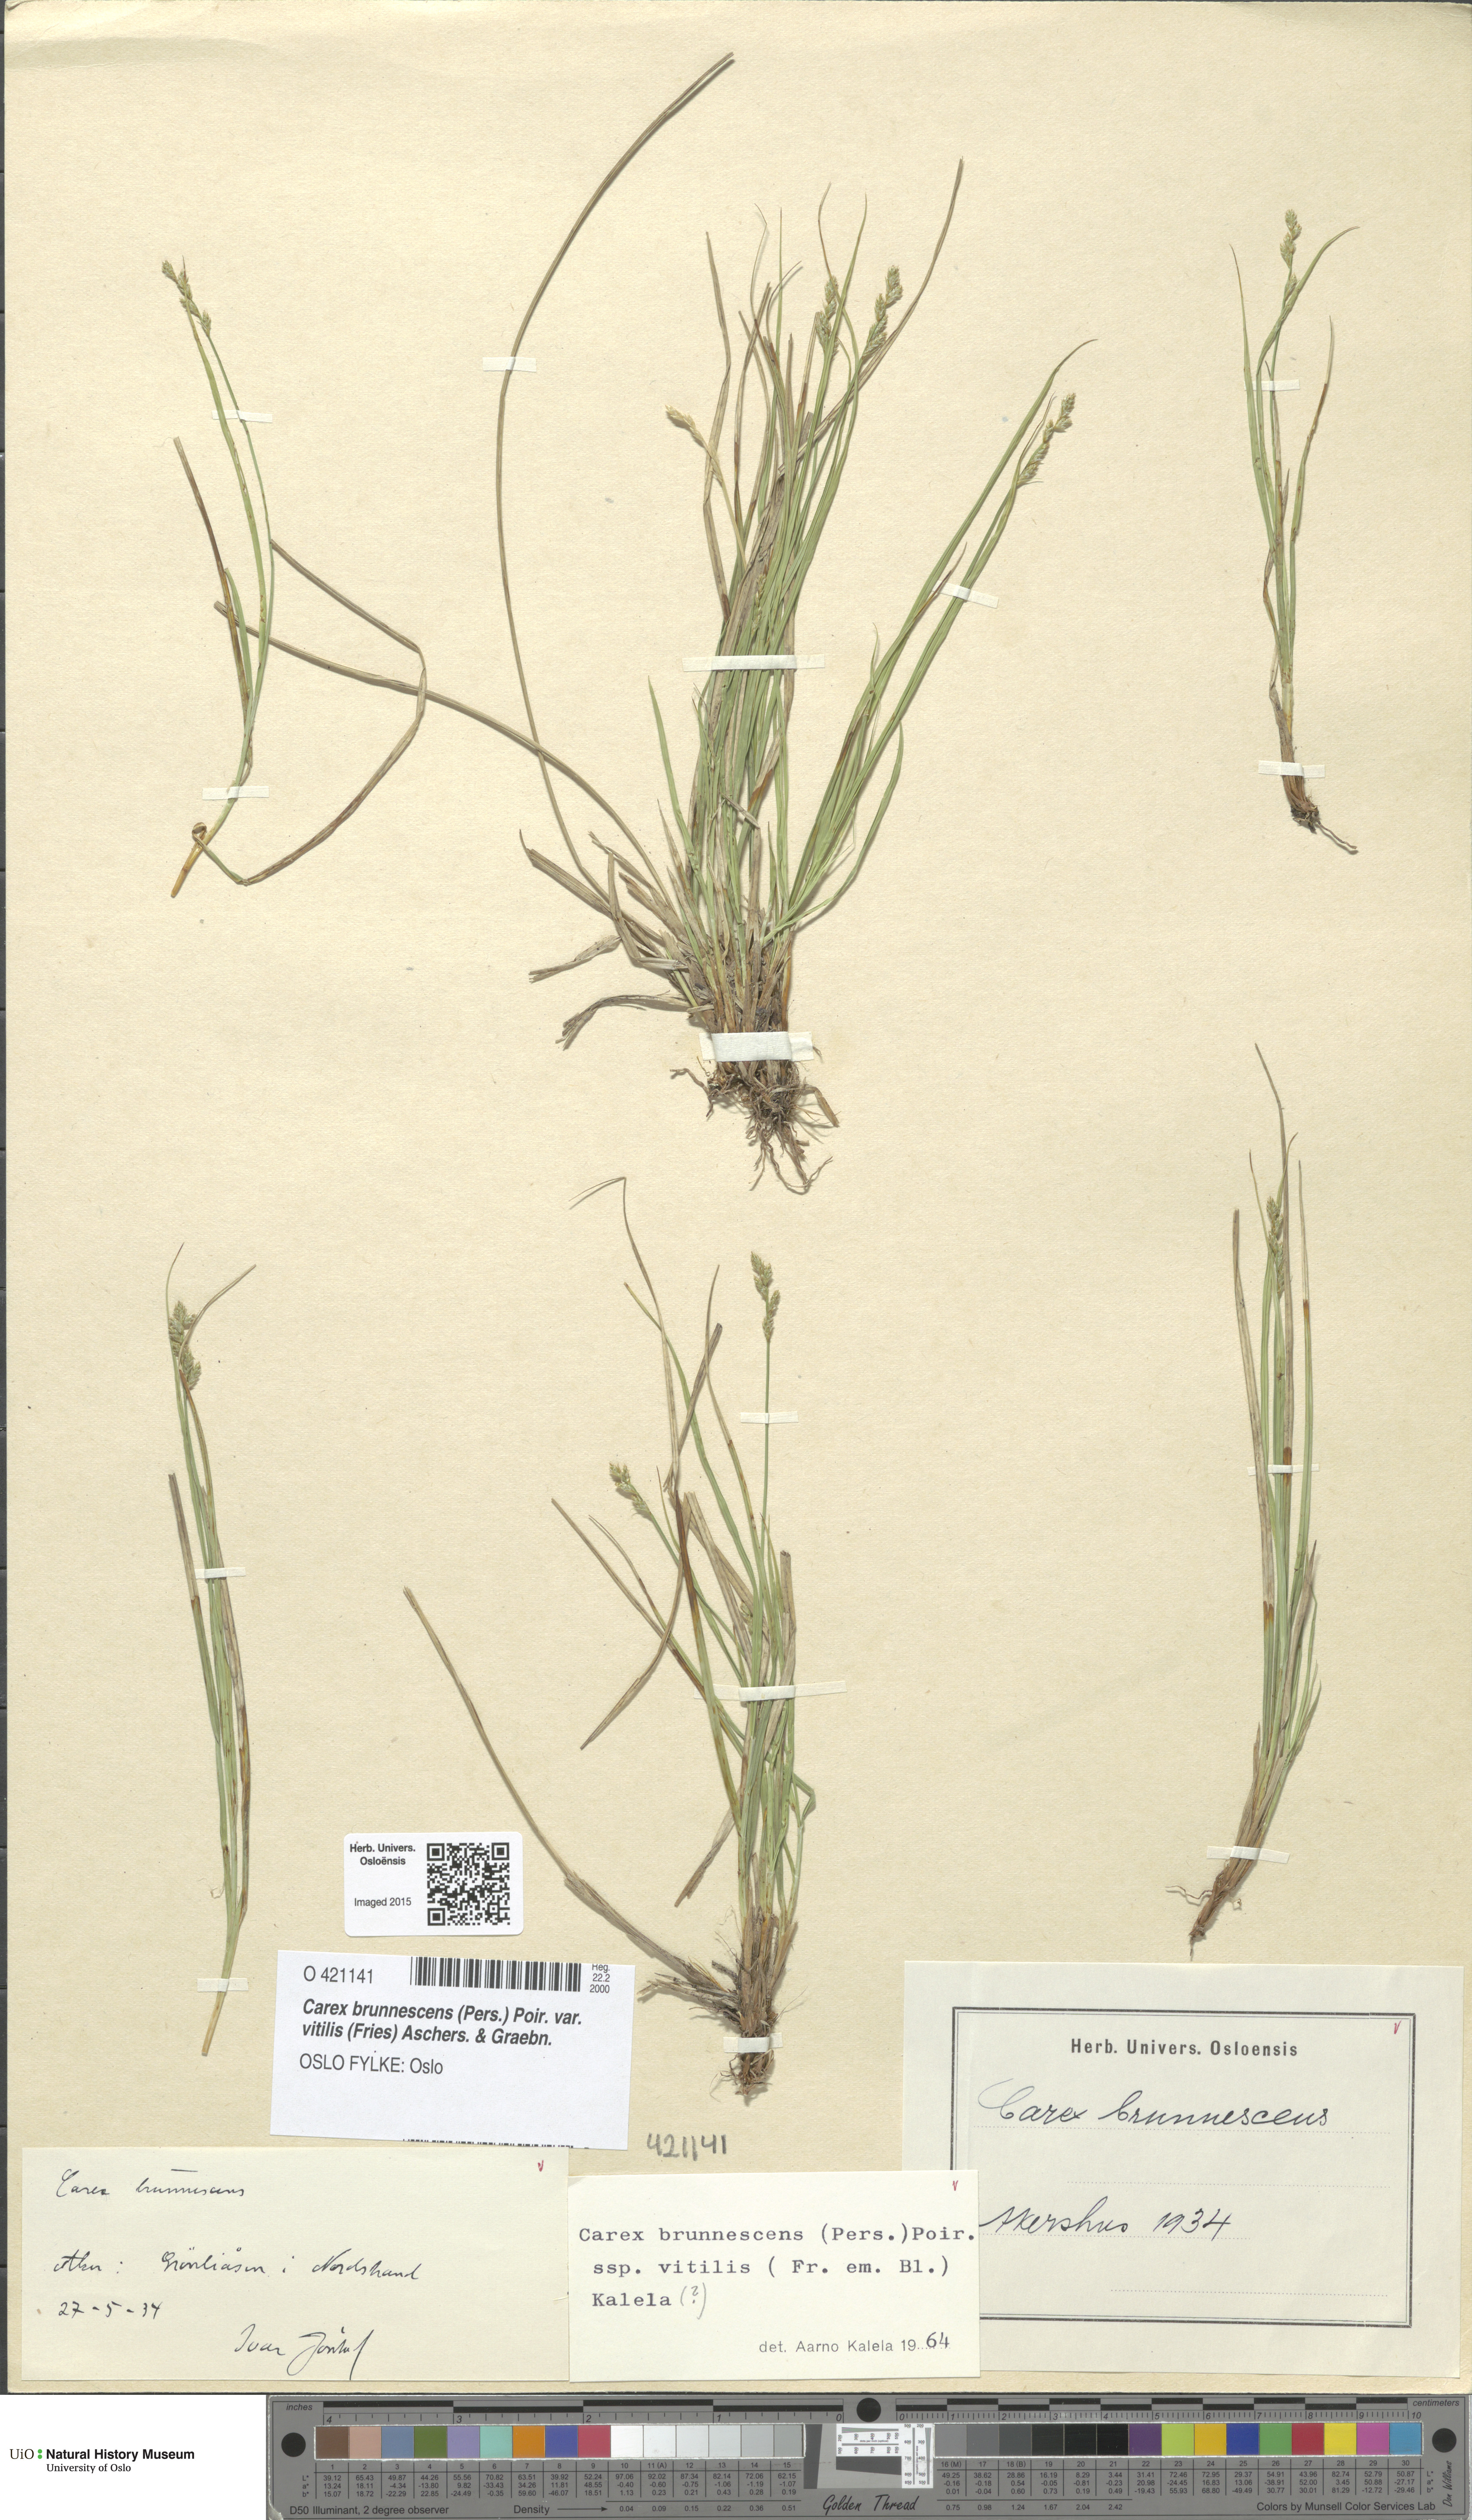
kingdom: Plantae
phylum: Tracheophyta
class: Liliopsida
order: Poales
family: Cyperaceae
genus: Carex
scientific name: Carex brunnescens
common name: Brown sedge
